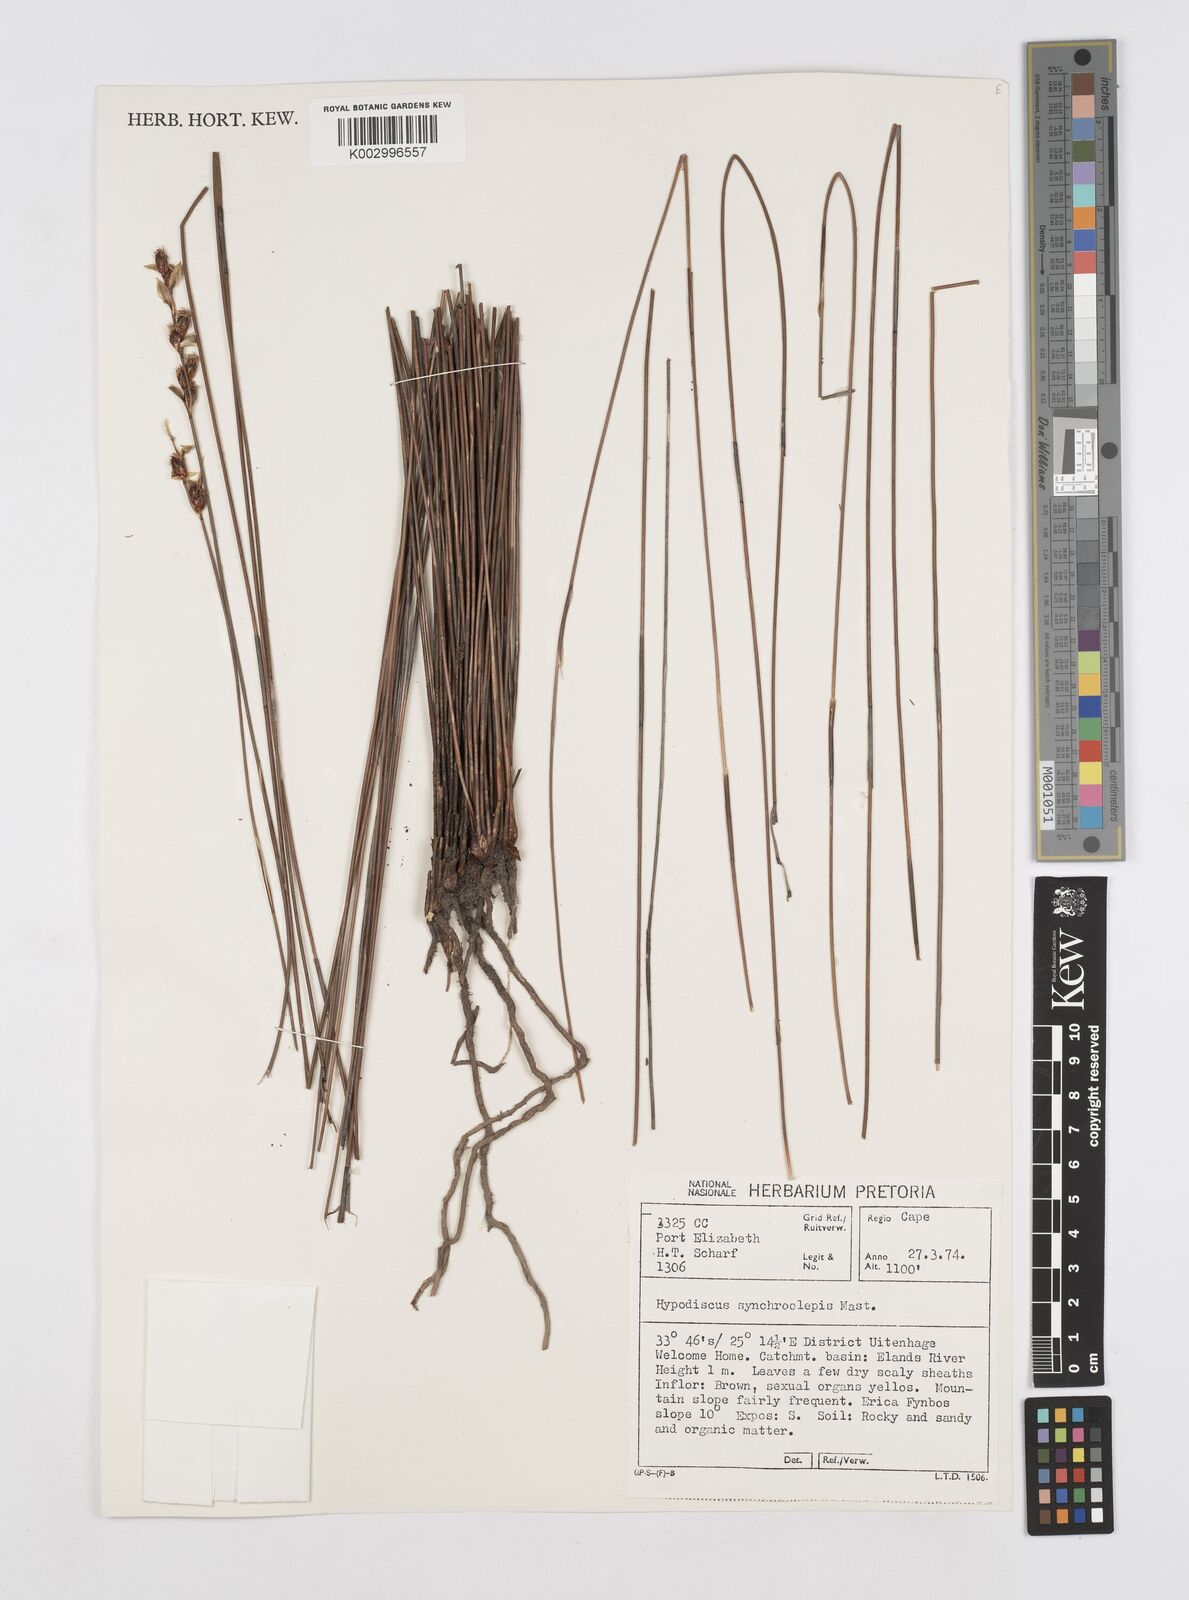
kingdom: Plantae
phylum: Tracheophyta
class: Liliopsida
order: Poales
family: Restionaceae
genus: Hypodiscus
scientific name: Hypodiscus synchroolepis
